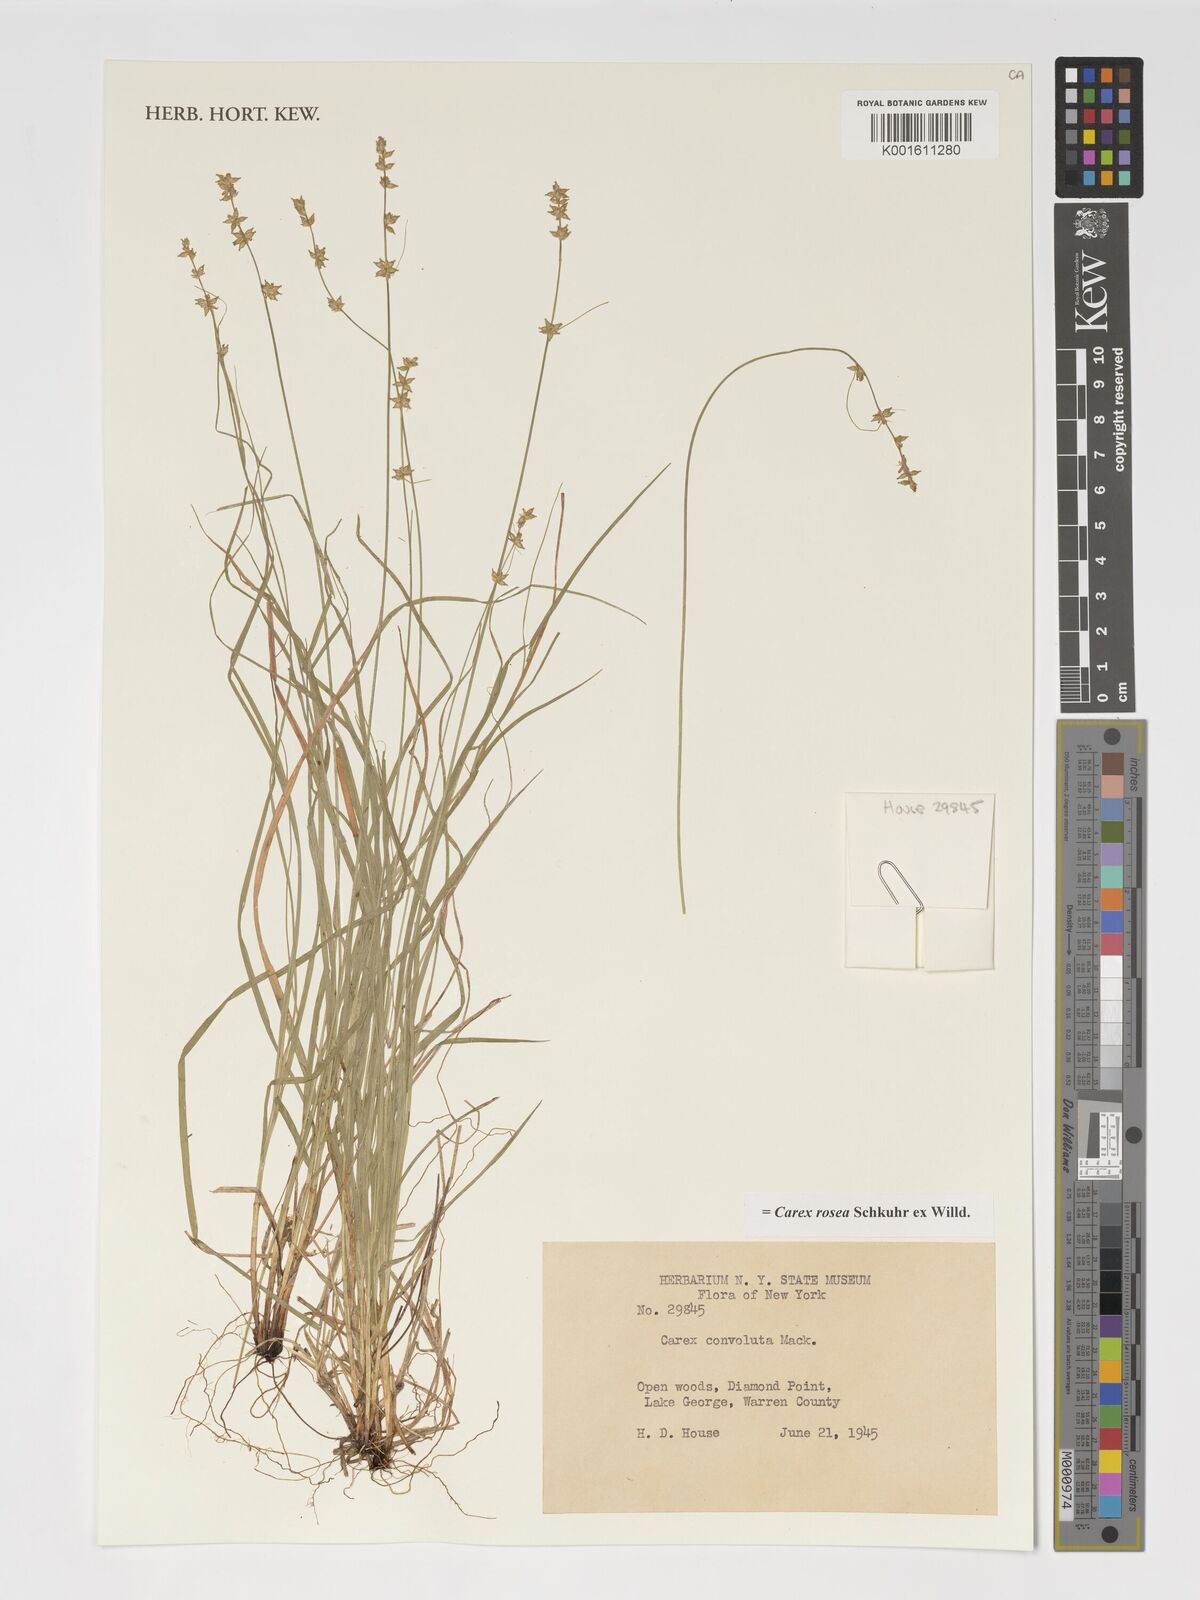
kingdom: Plantae
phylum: Tracheophyta
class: Liliopsida
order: Poales
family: Cyperaceae
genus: Carex
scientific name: Carex rosea
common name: Curly-styled wood sedge
